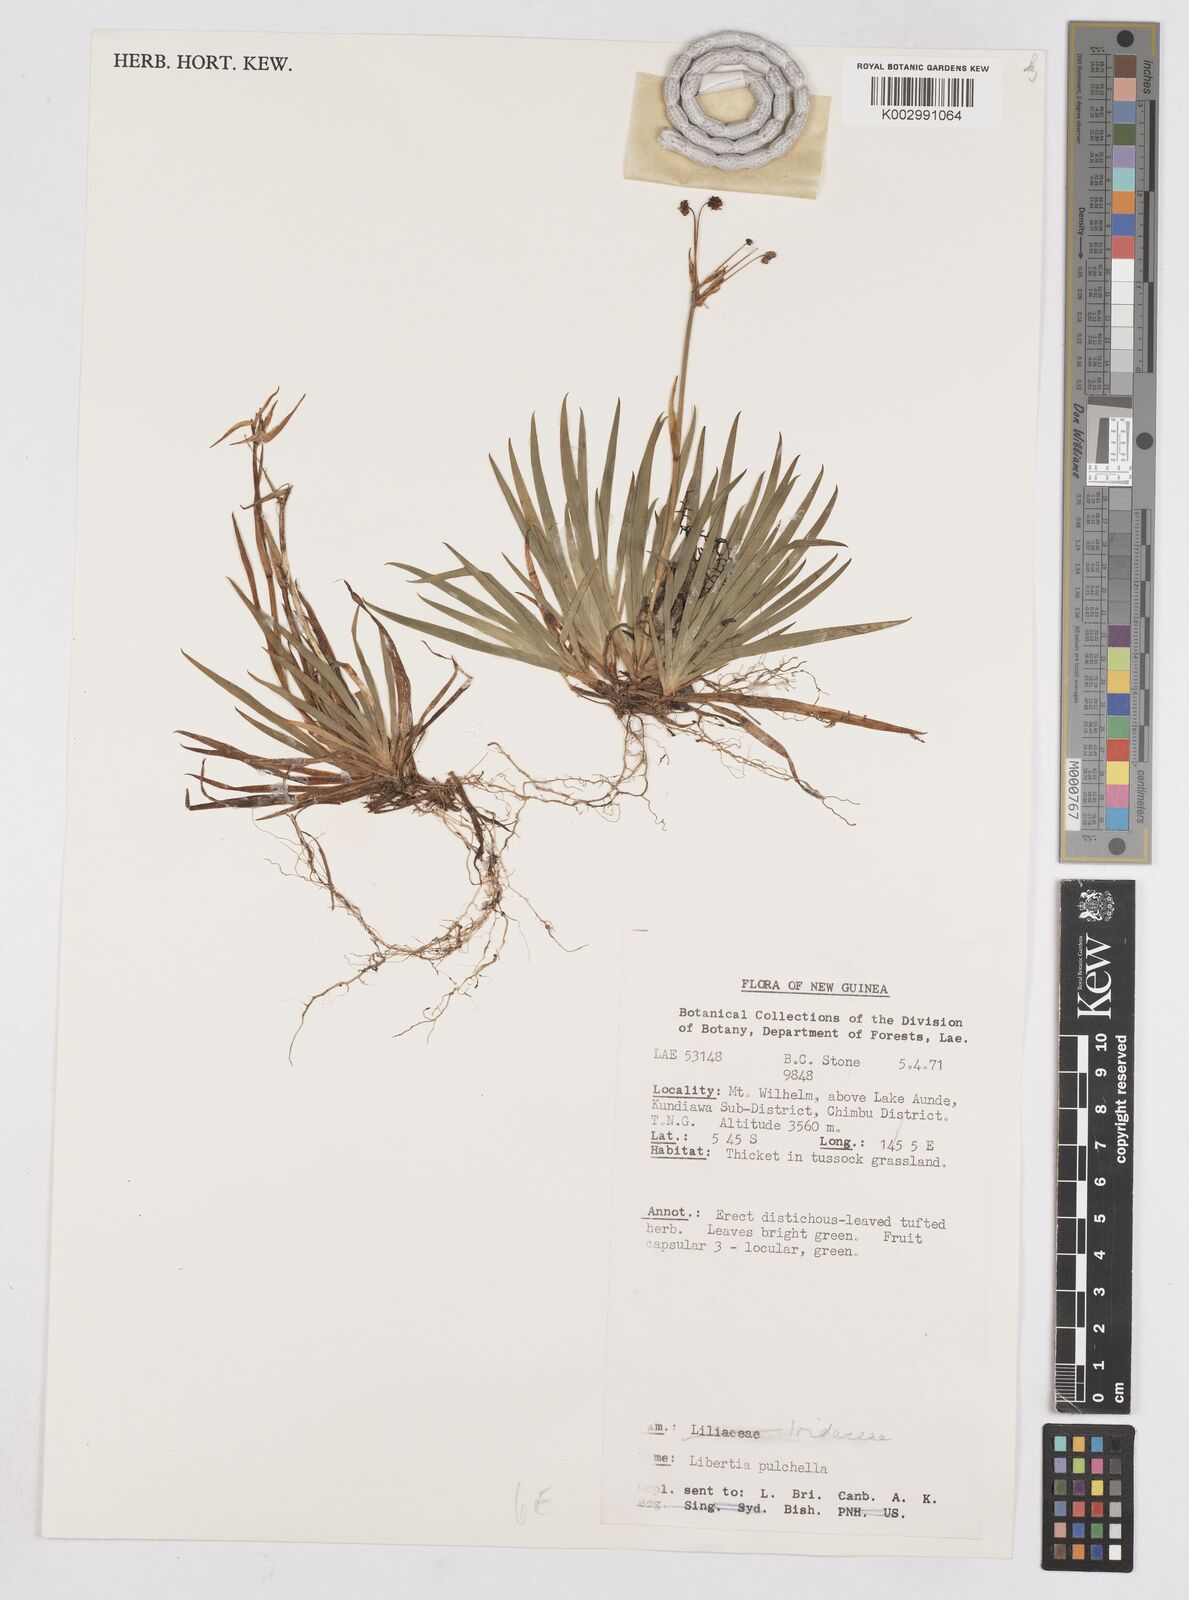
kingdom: Plantae
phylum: Tracheophyta
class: Liliopsida
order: Asparagales
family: Iridaceae
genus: Libertia
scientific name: Libertia pulchella
